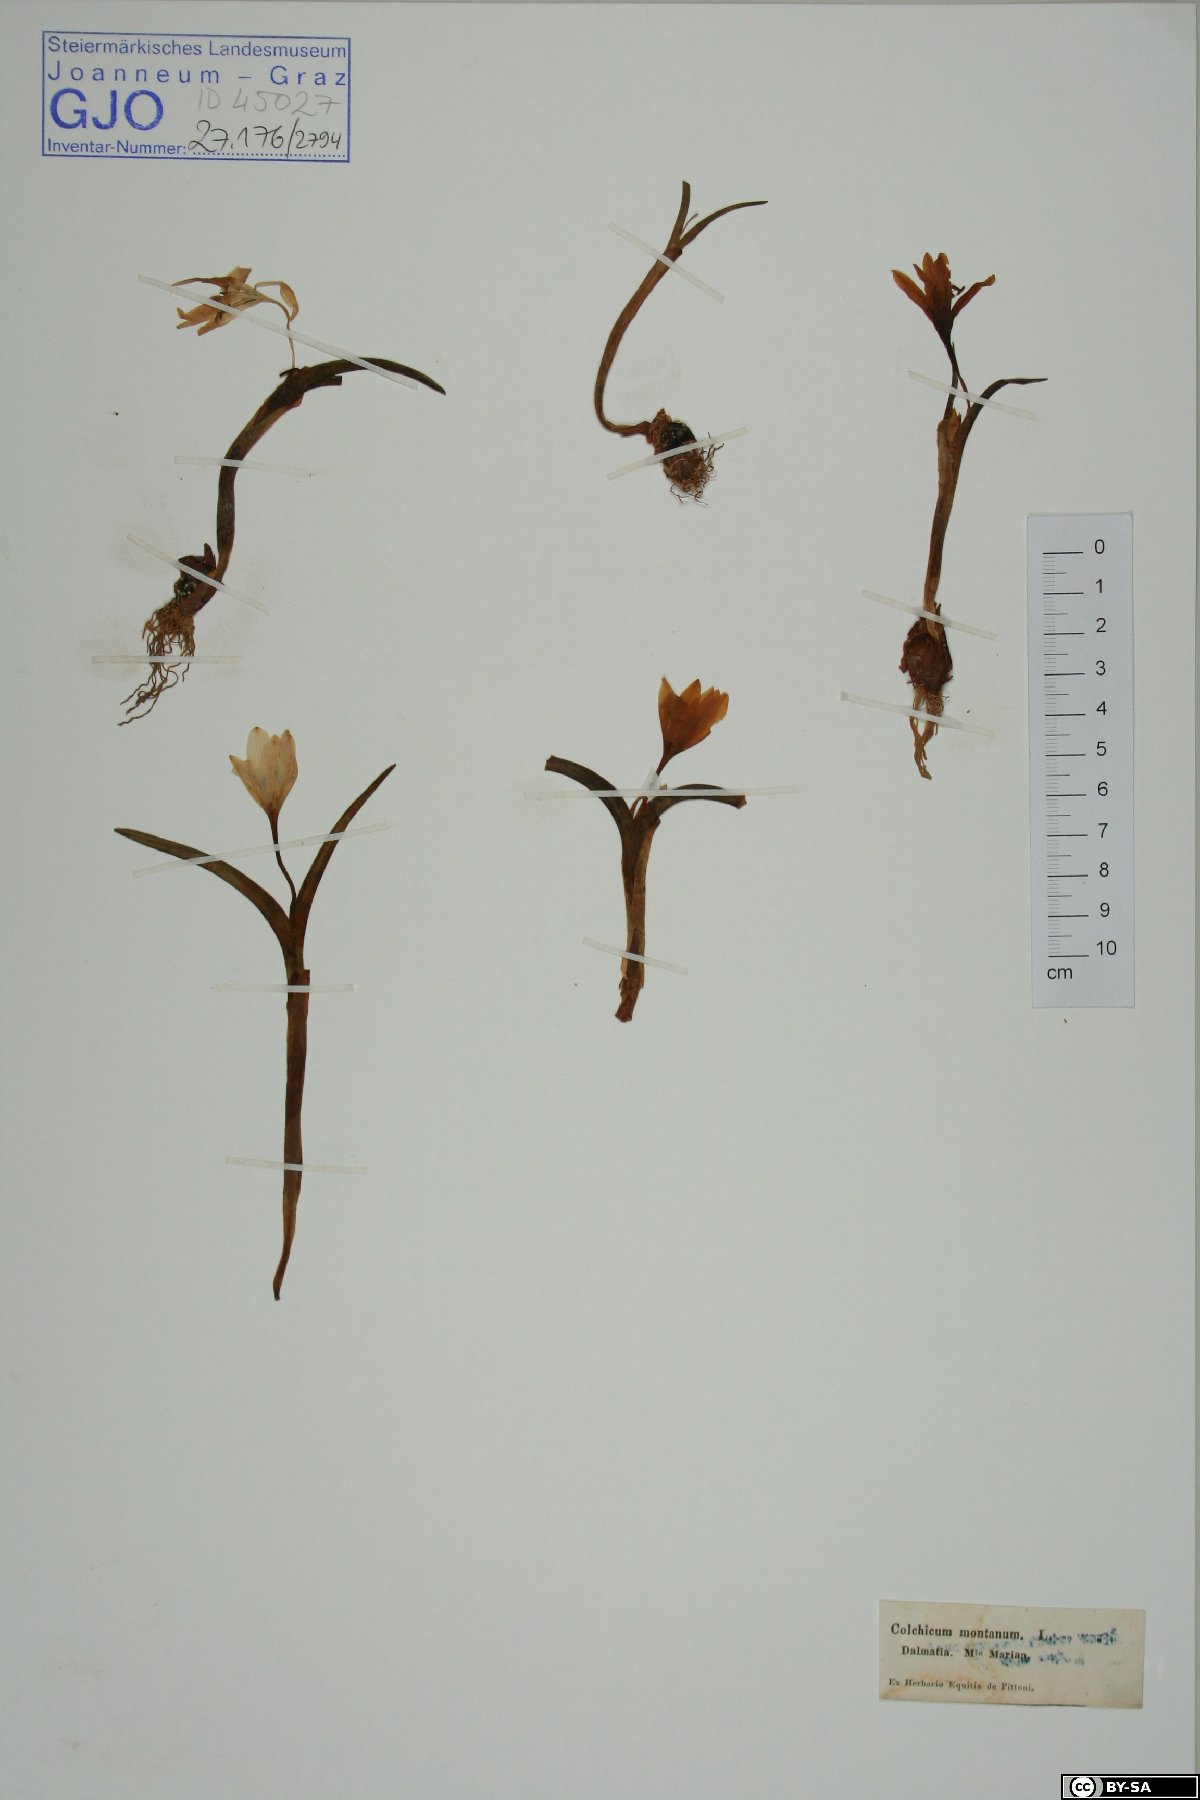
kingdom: Plantae
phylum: Tracheophyta
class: Liliopsida
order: Liliales
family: Colchicaceae
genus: Colchicum
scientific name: Colchicum montanum
